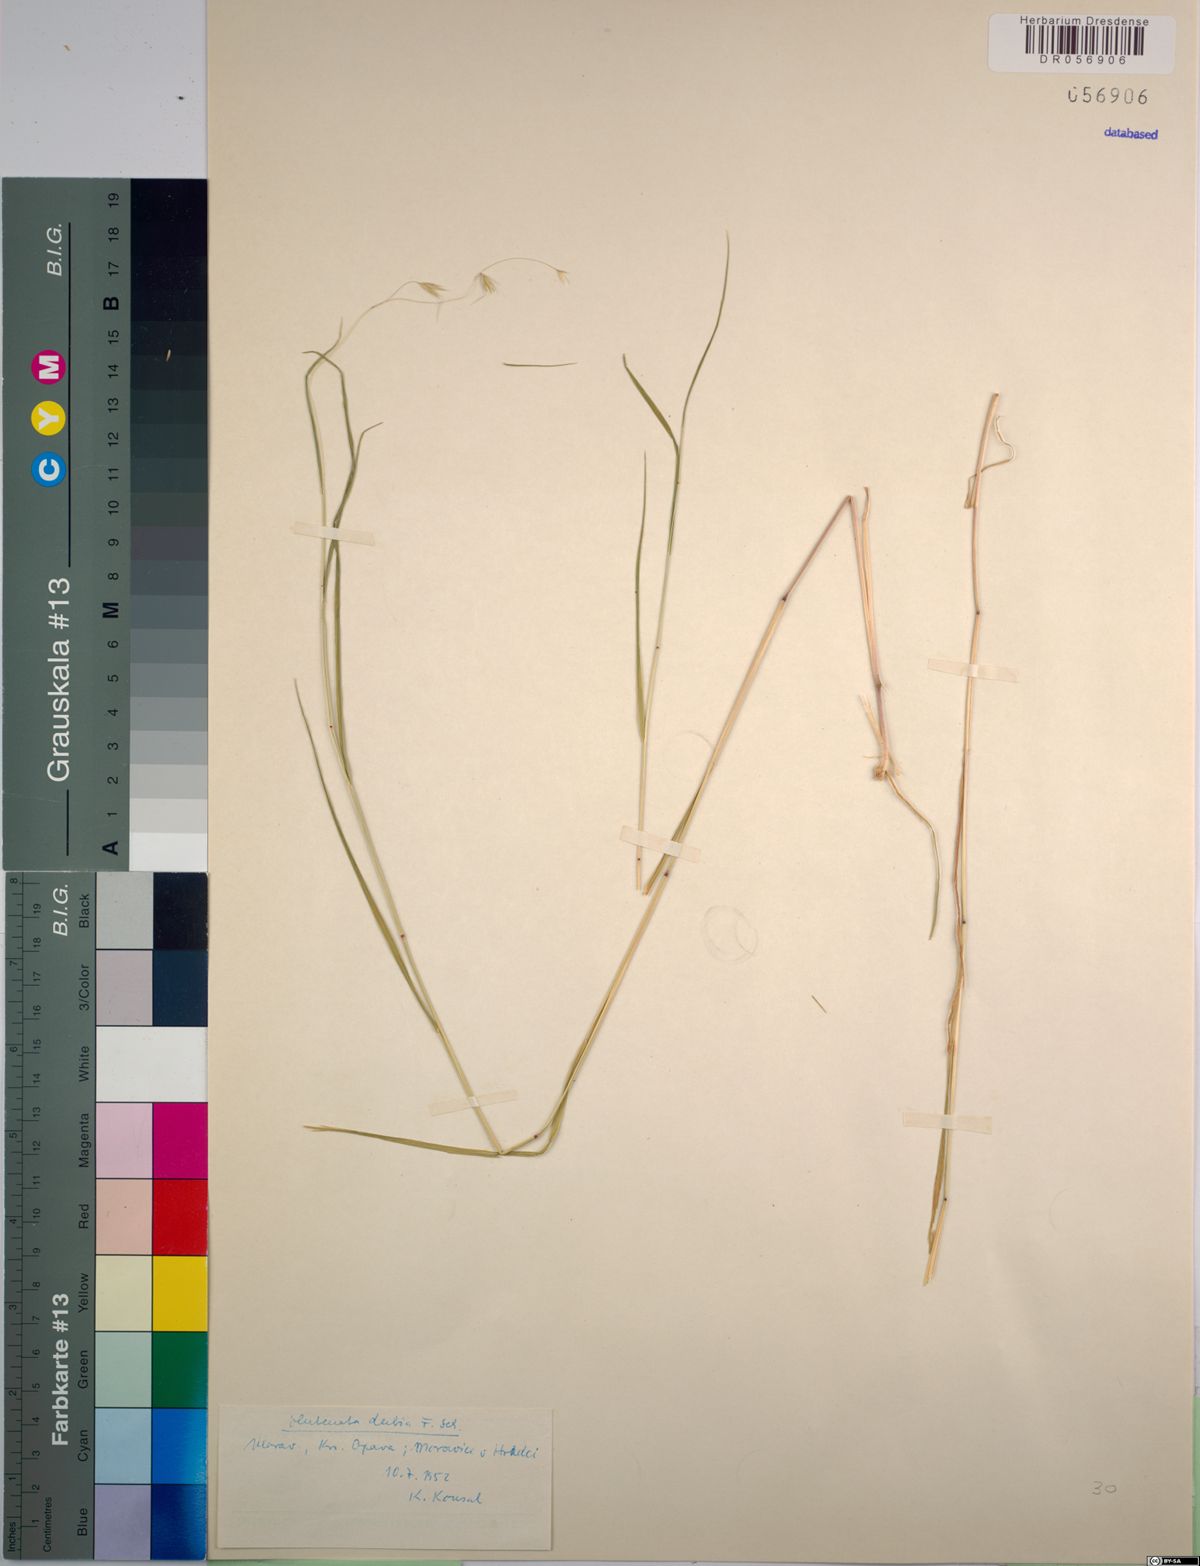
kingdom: Plantae
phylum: Tracheophyta
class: Liliopsida
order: Poales
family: Poaceae
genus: Ventenata
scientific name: Ventenata dubia
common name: North africa grass
